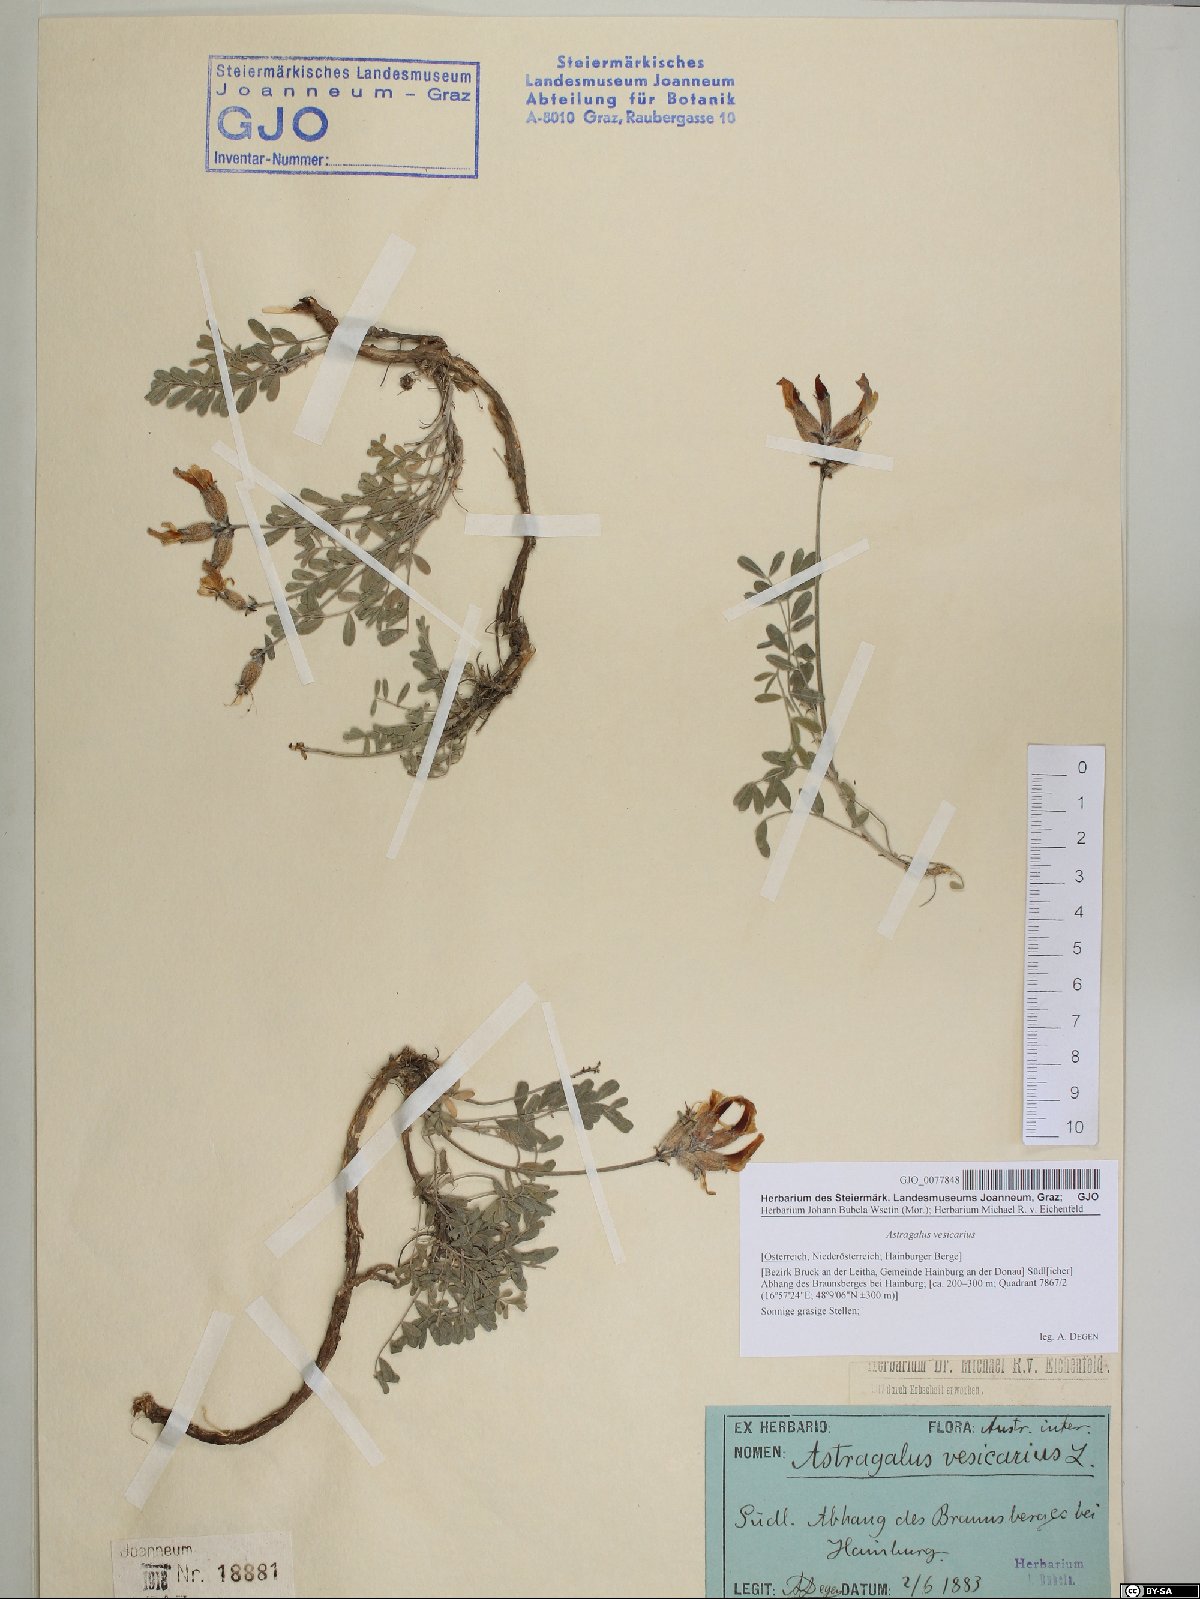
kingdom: Plantae
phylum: Tracheophyta
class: Magnoliopsida
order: Fabales
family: Fabaceae
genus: Astragalus
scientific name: Astragalus vesicarius
